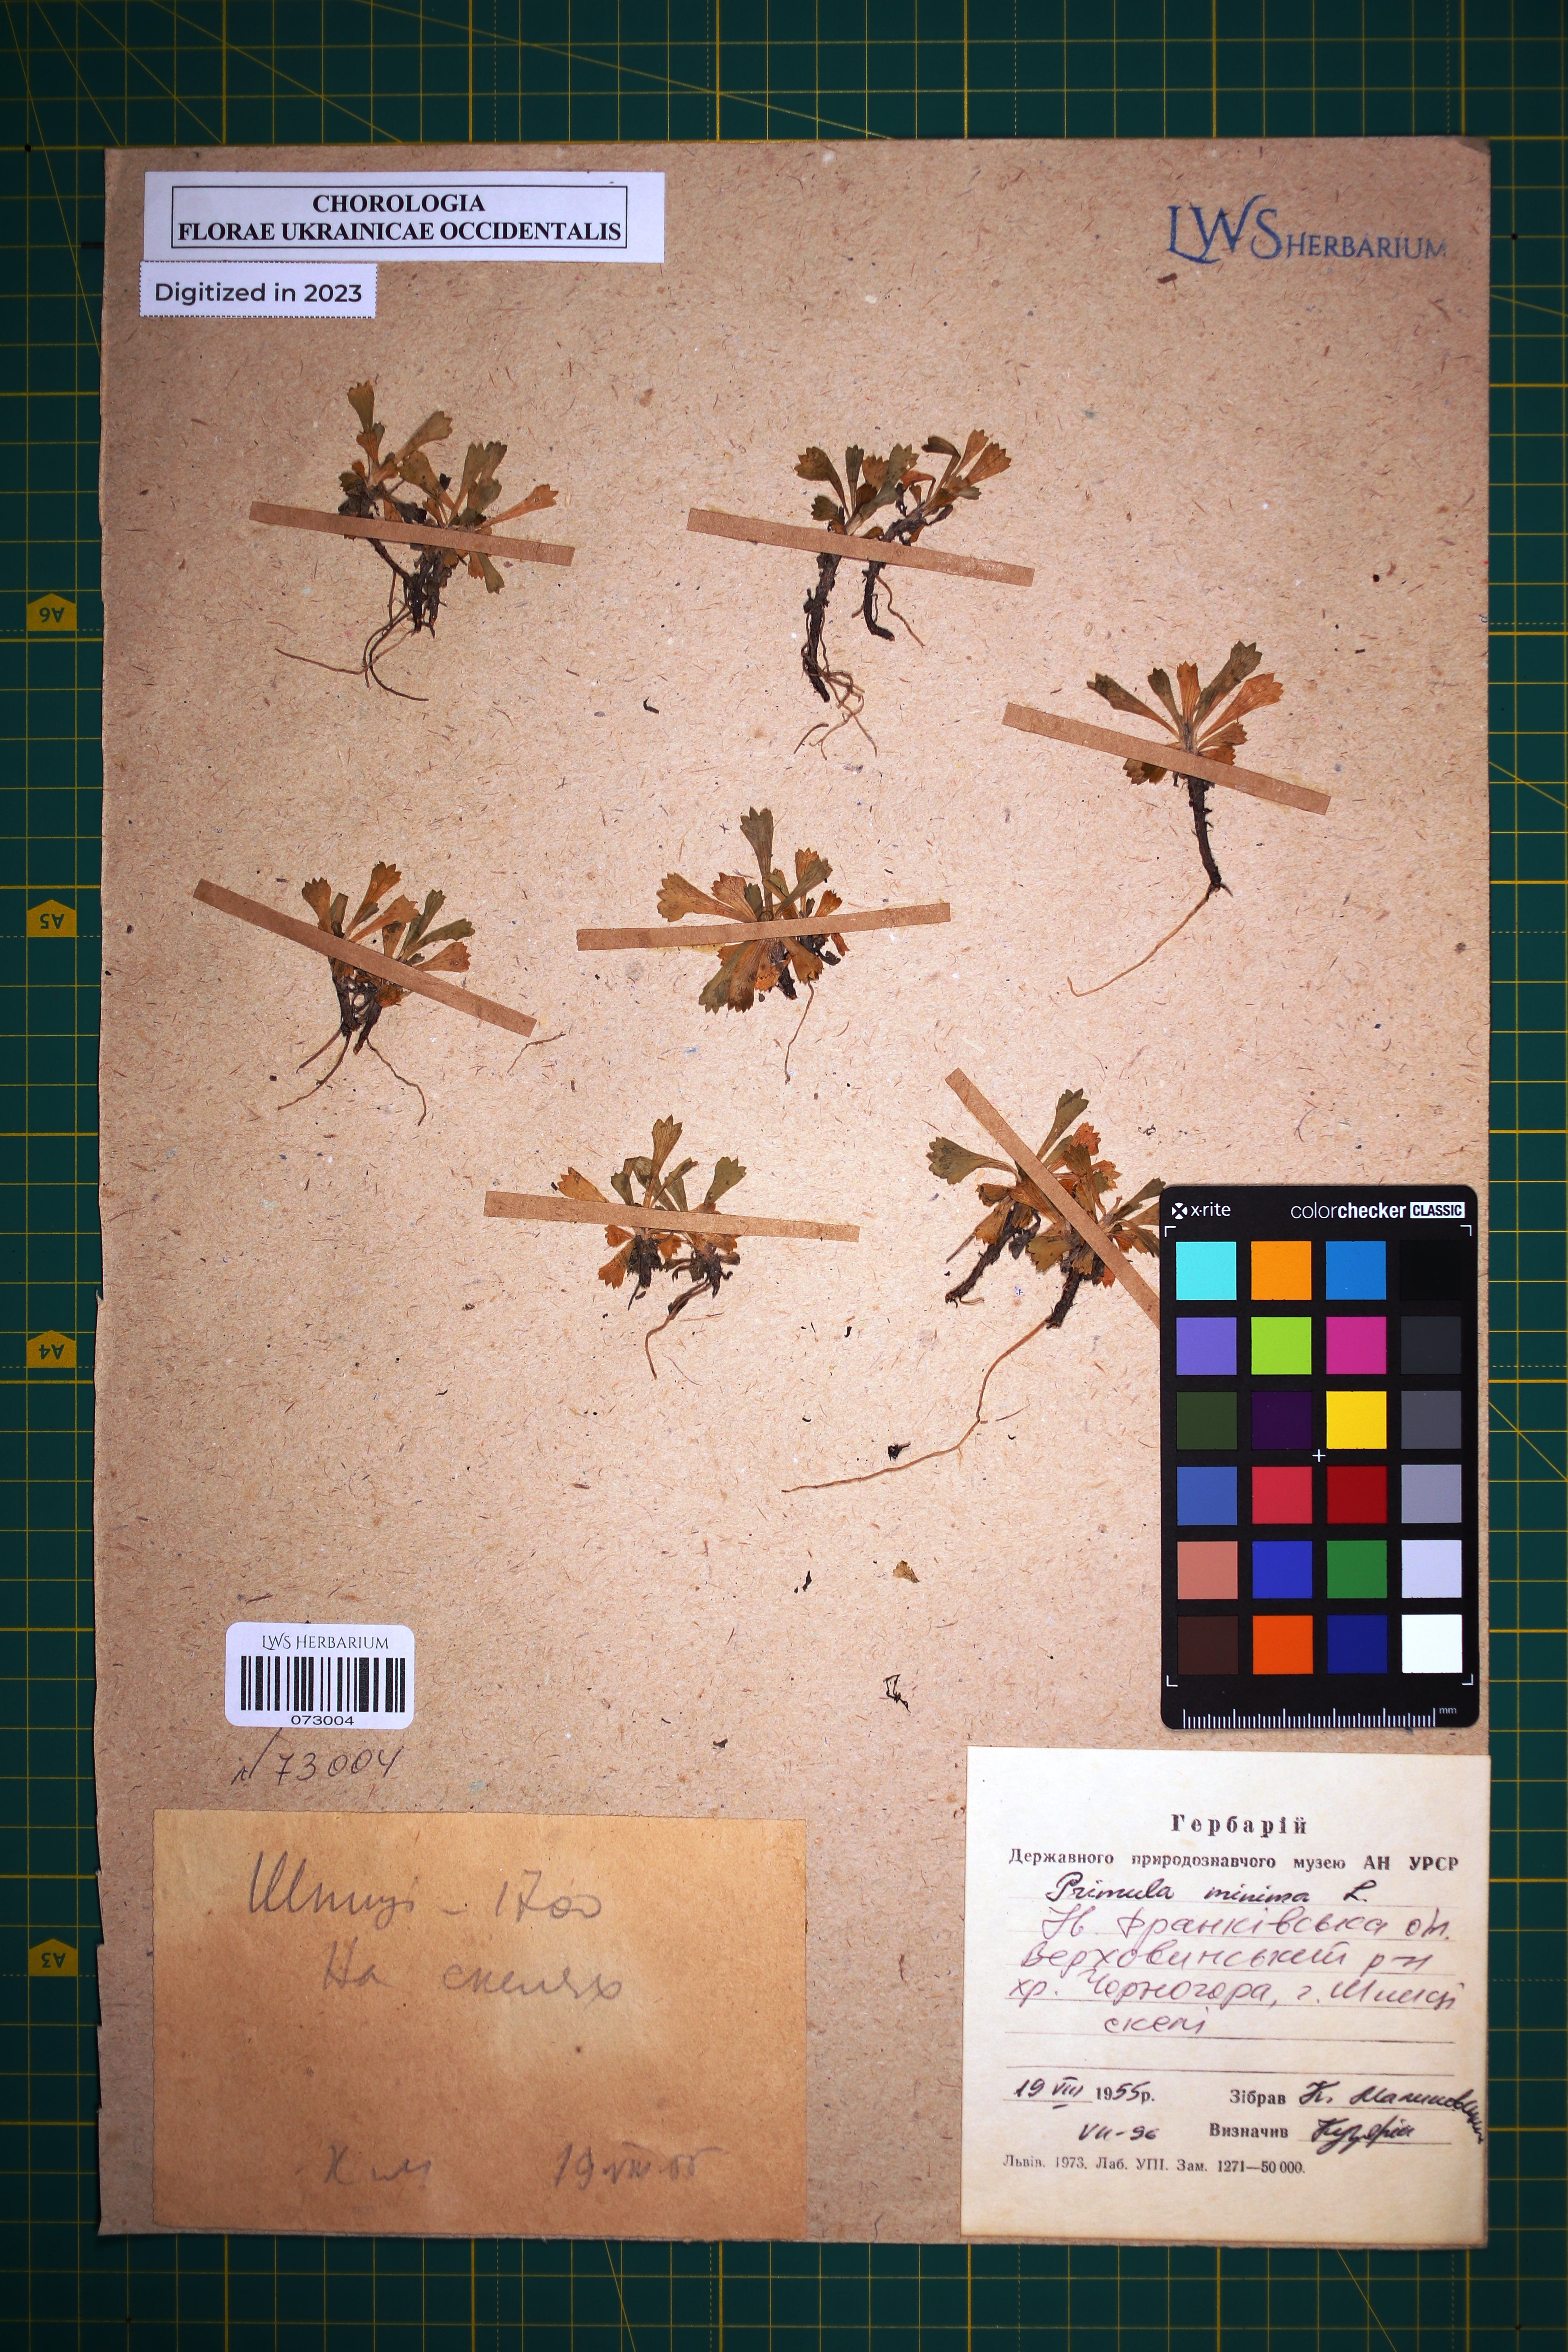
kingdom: Plantae
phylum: Tracheophyta
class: Magnoliopsida
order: Ericales
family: Primulaceae
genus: Primula
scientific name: Primula minima
